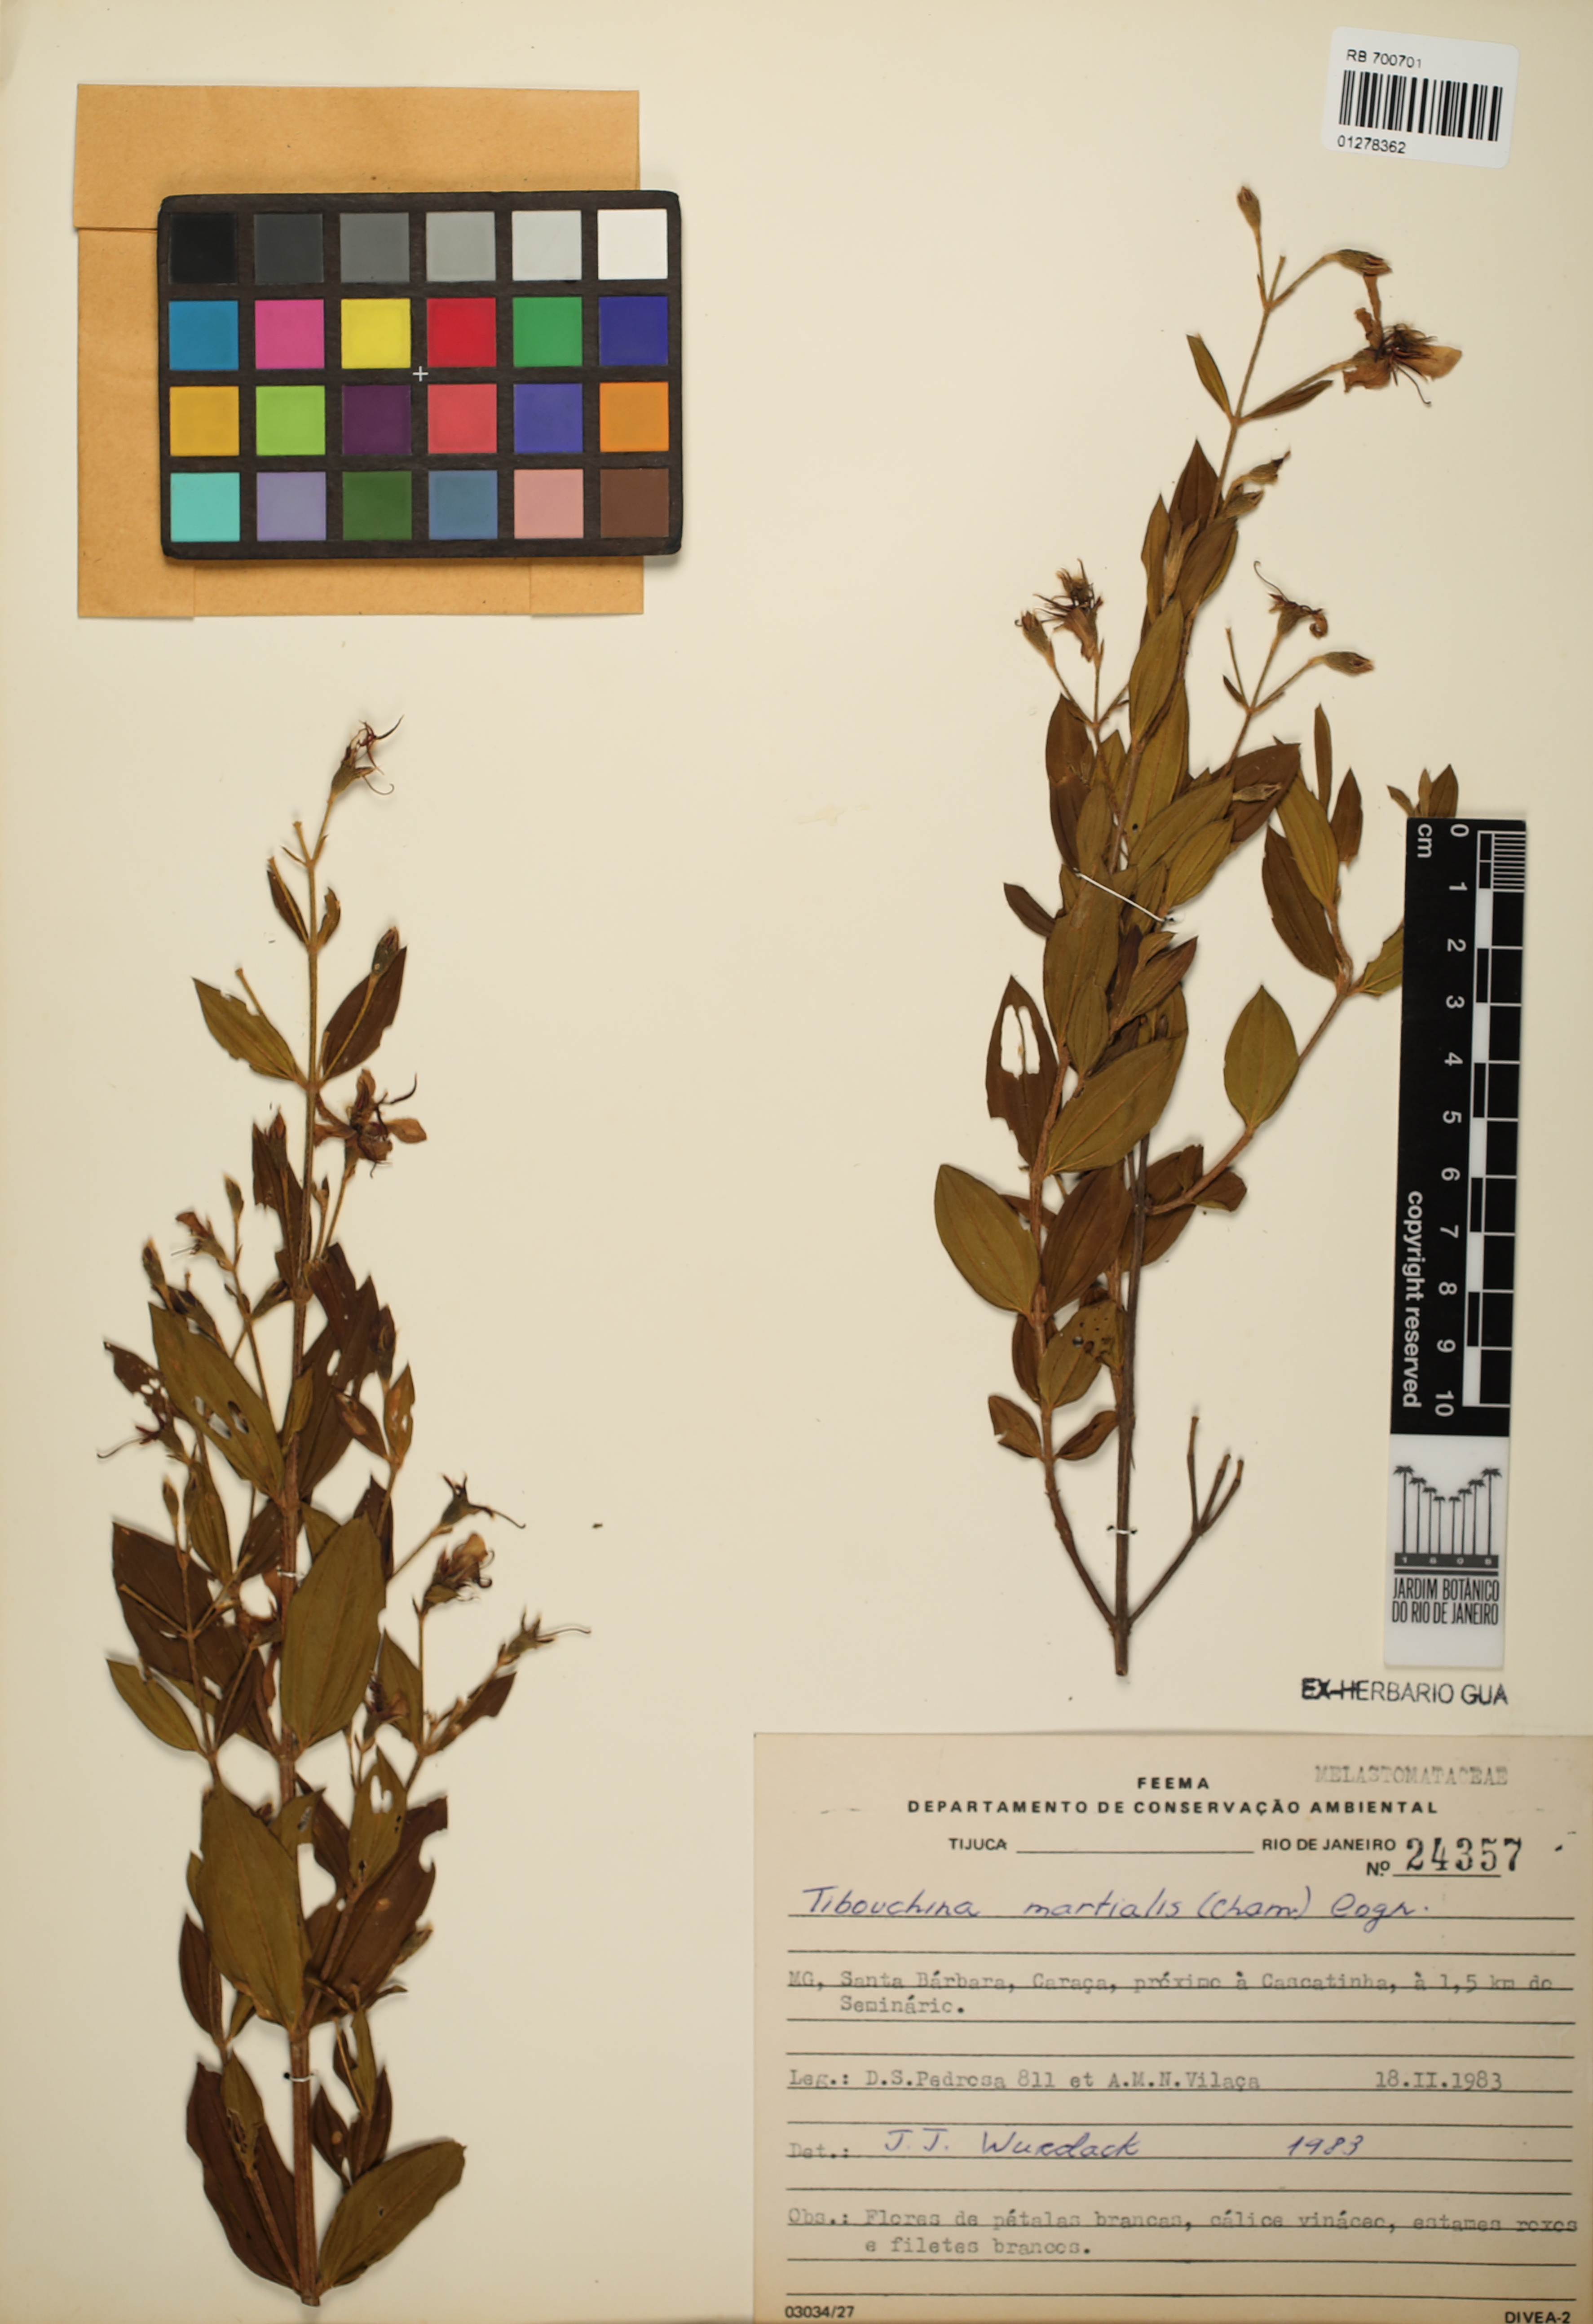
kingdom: Plantae
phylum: Tracheophyta
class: Magnoliopsida
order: Myrtales
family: Melastomataceae
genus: Pleroma
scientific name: Pleroma martiale
